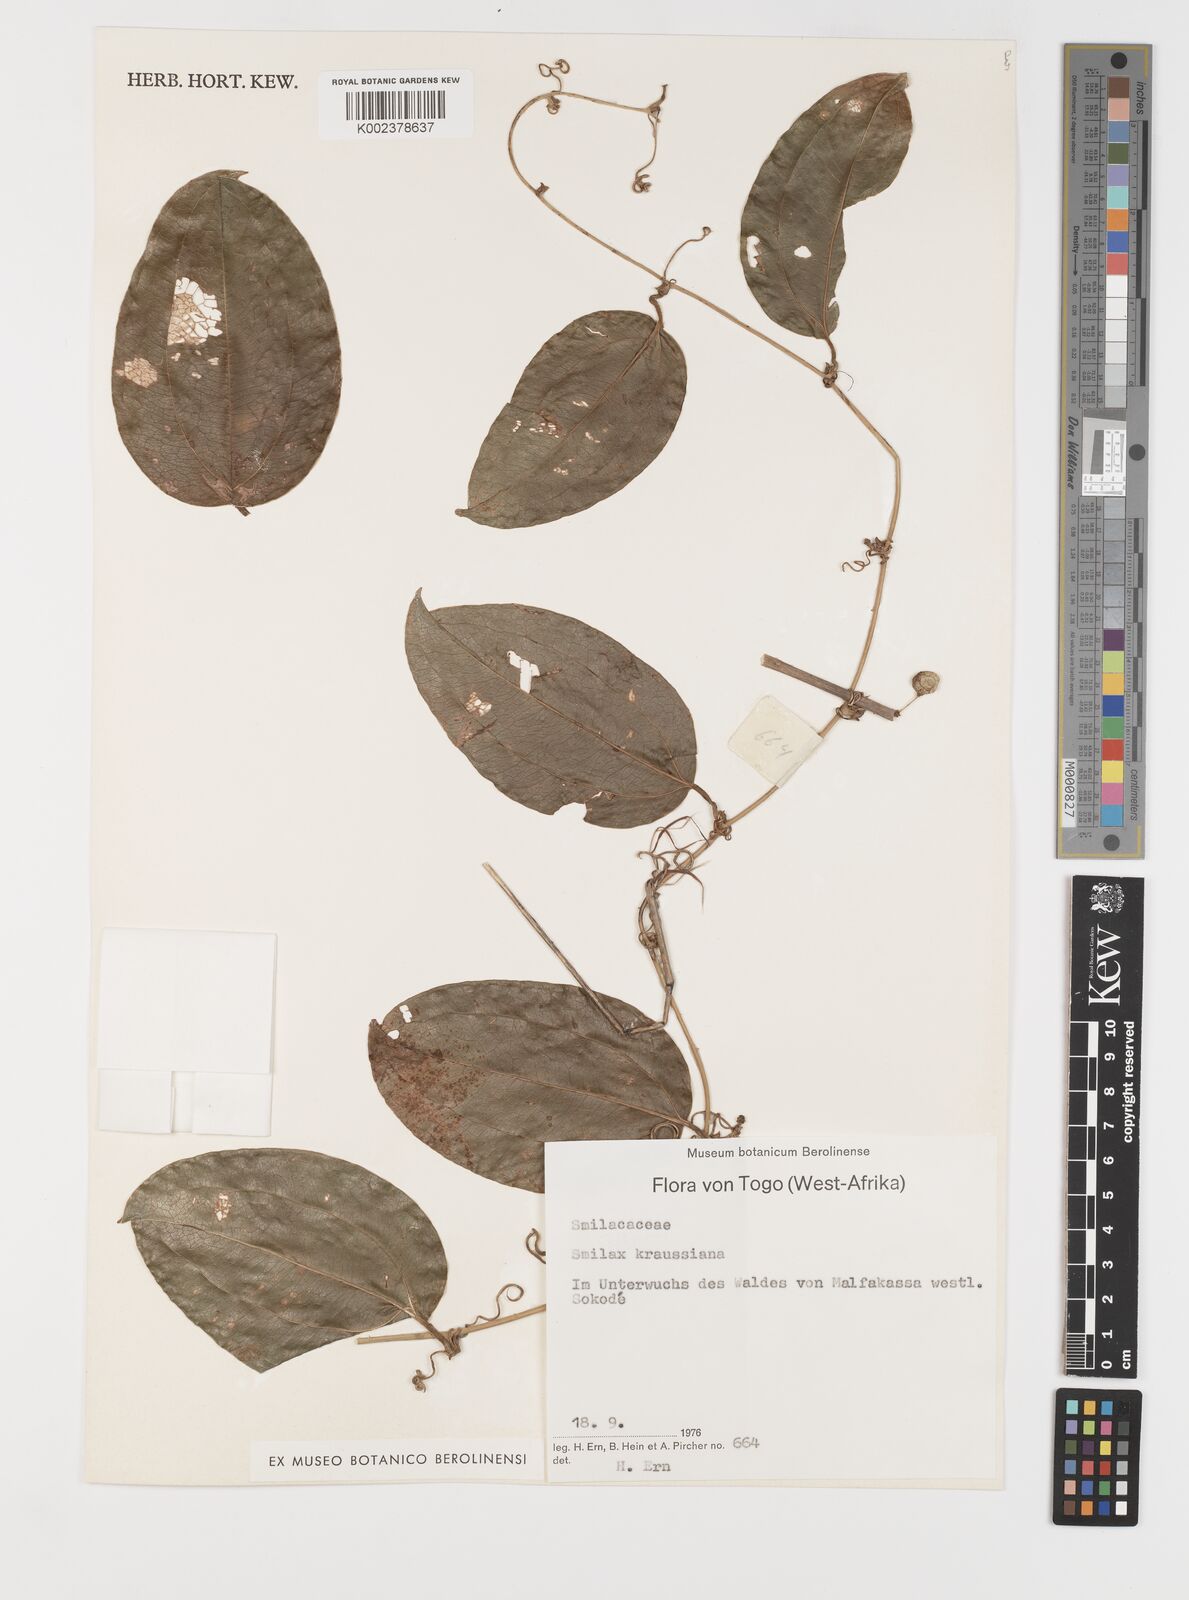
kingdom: Plantae
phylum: Tracheophyta
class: Liliopsida
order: Liliales
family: Smilacaceae
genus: Smilax
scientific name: Smilax anceps
